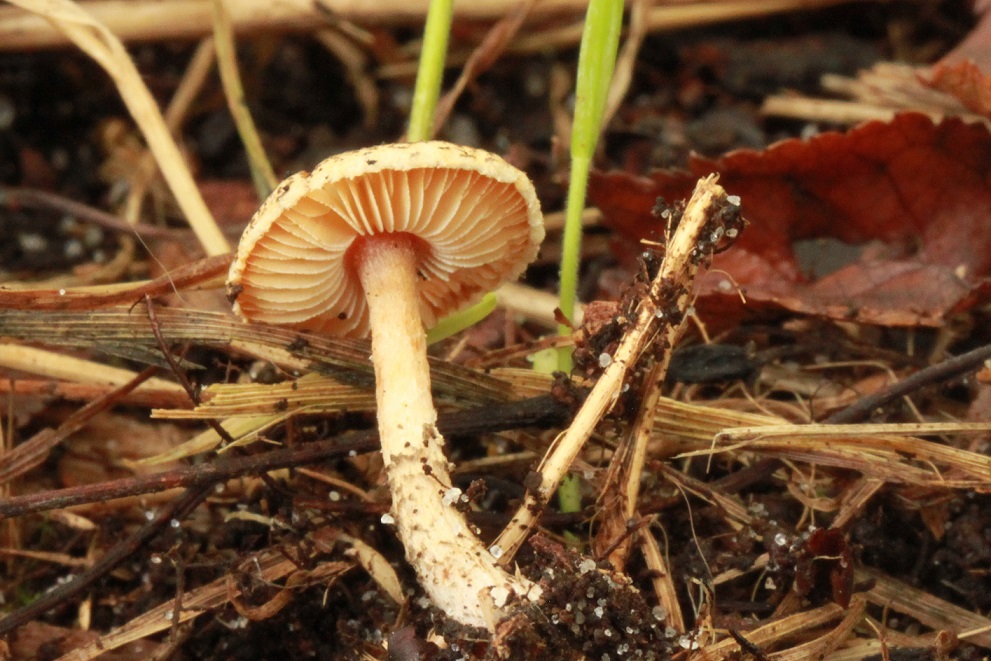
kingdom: Fungi
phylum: Basidiomycota
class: Agaricomycetes
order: Agaricales
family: Agaricaceae
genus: Lepiota
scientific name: Lepiota griseovirens
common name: grågrøn parasolhat
